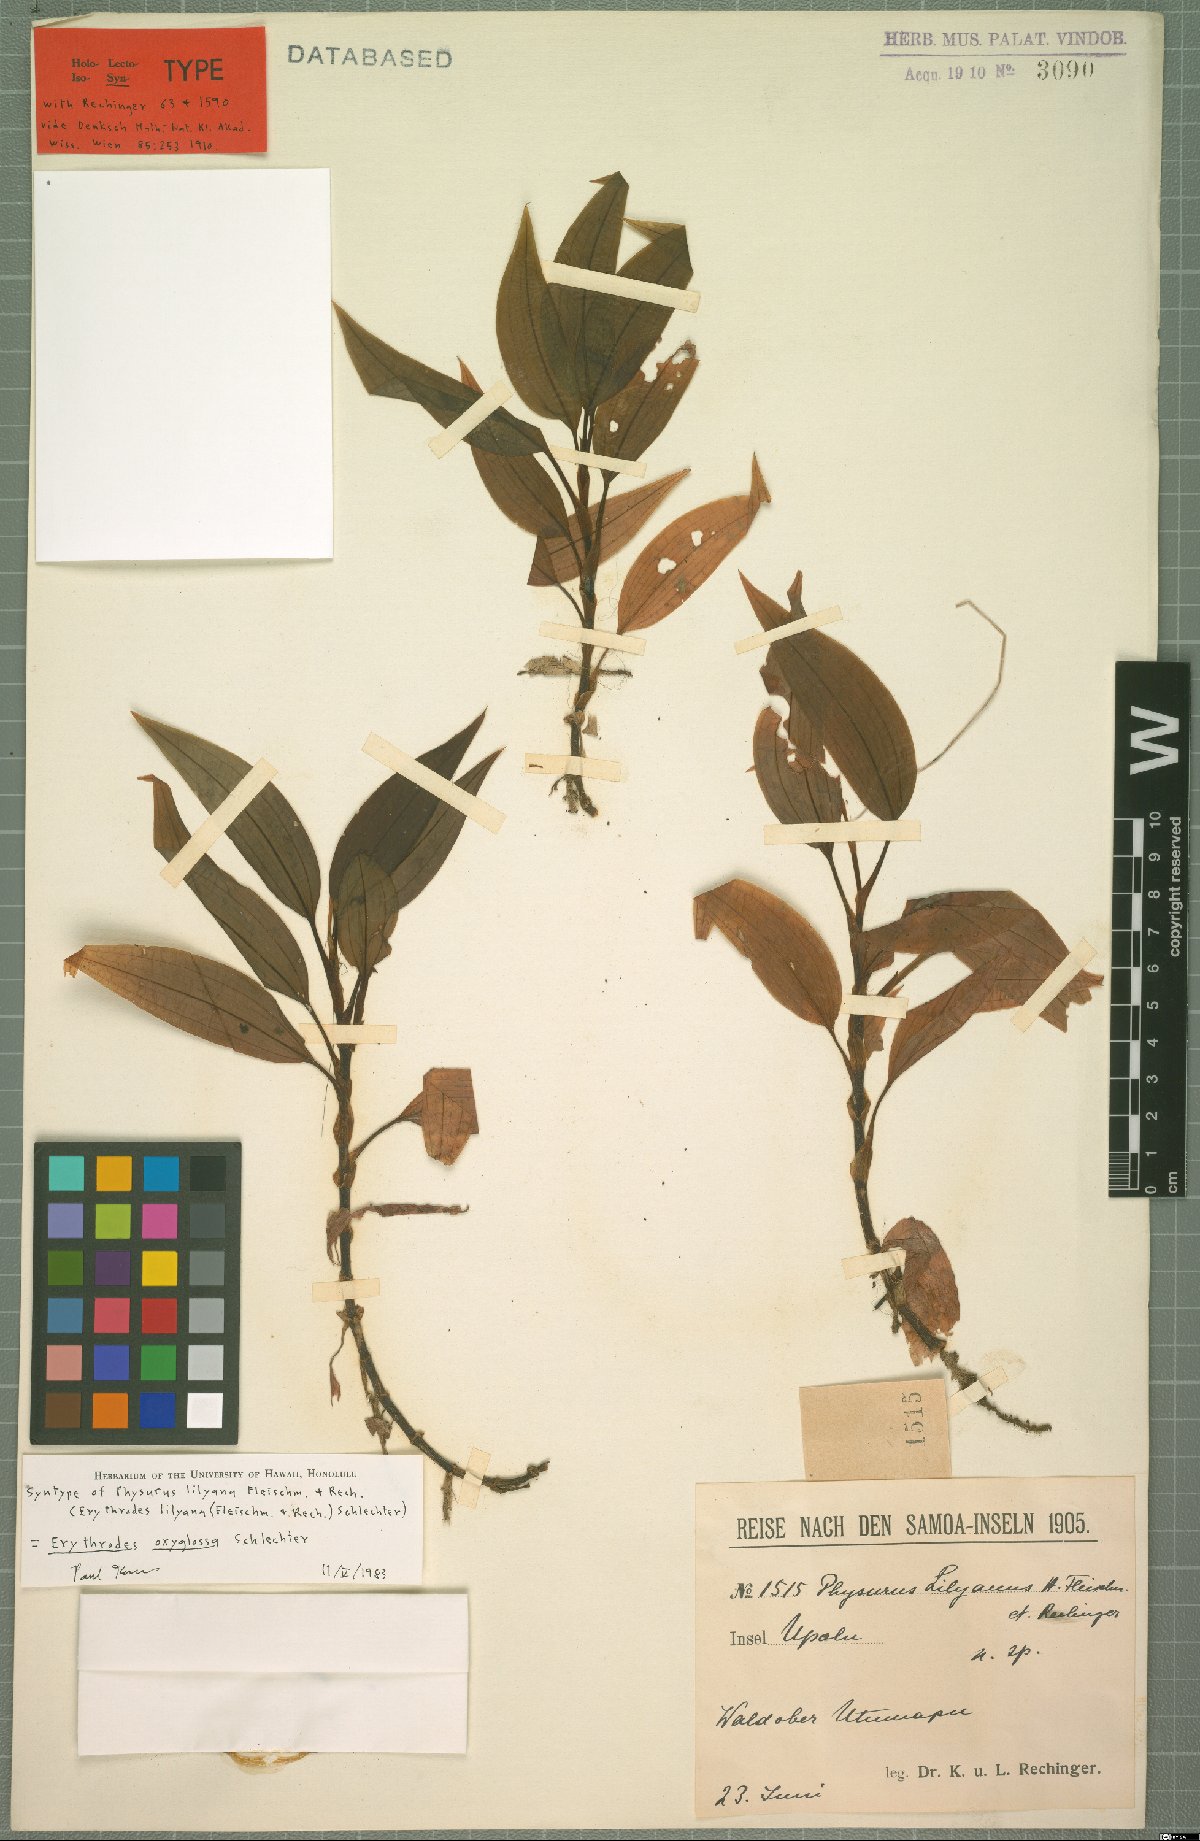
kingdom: Plantae
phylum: Tracheophyta
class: Liliopsida
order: Asparagales
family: Orchidaceae
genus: Erythrodes
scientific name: Erythrodes oxyglossa
